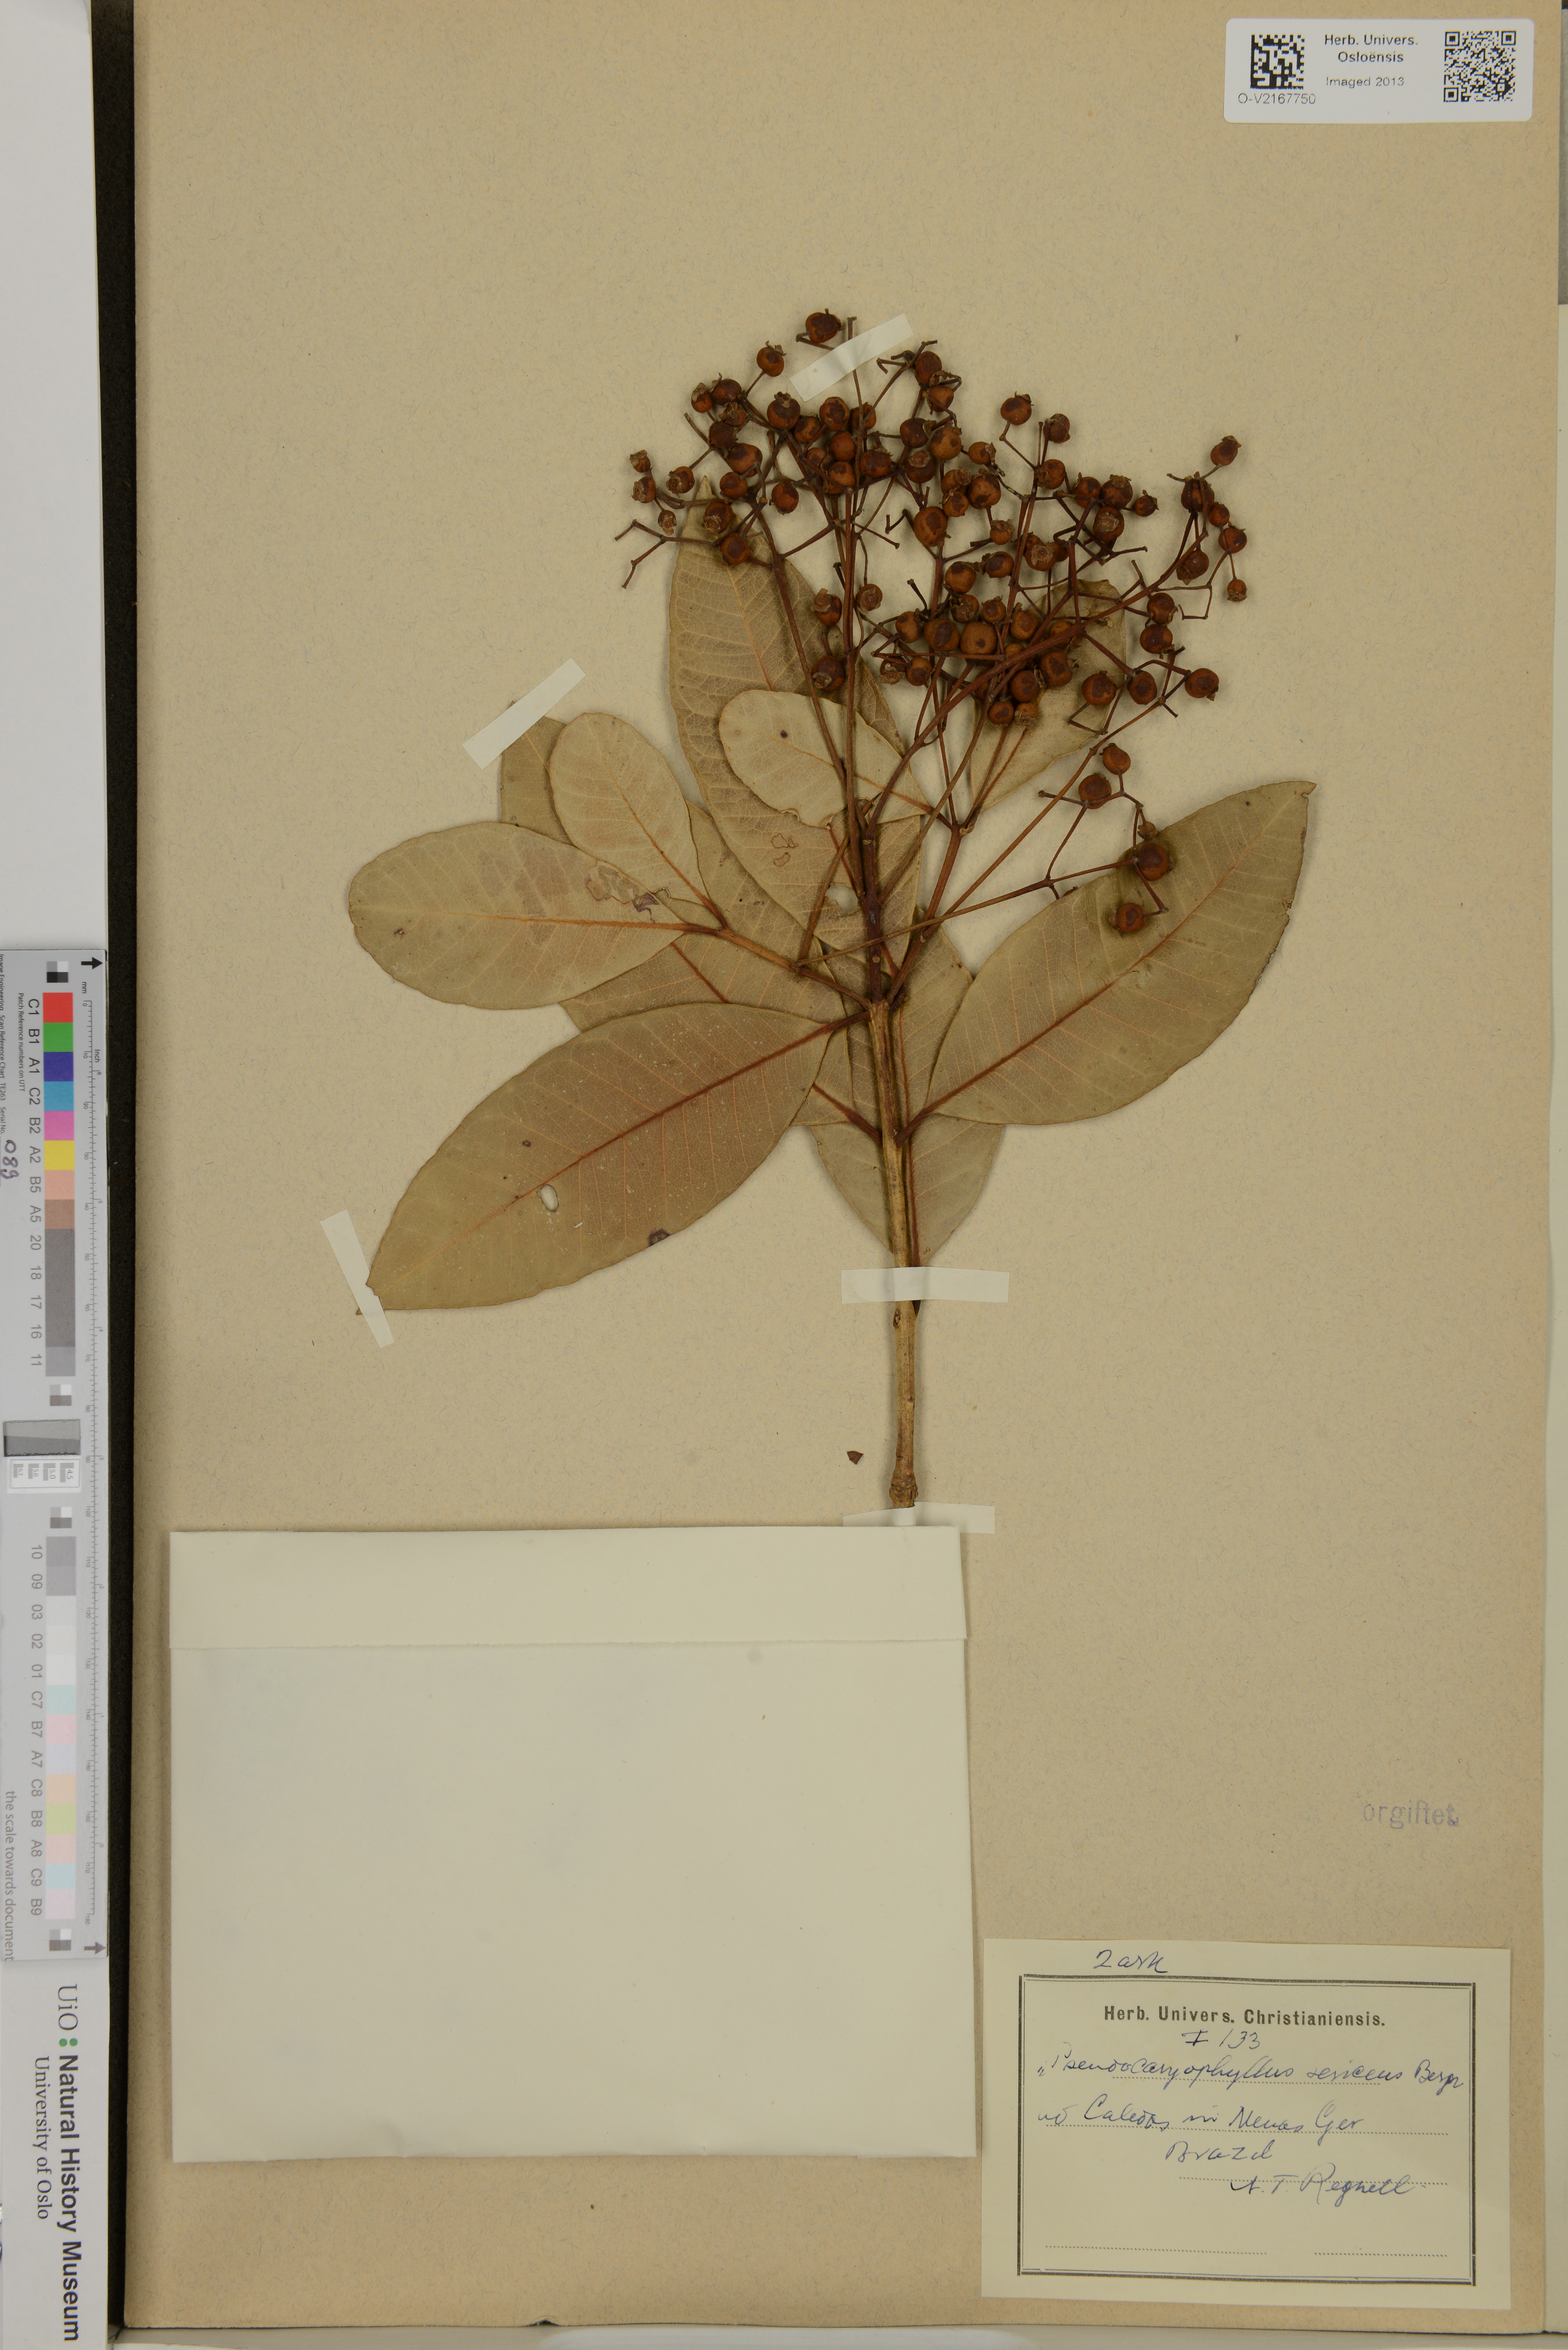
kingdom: Plantae
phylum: Tracheophyta
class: Magnoliopsida
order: Myrtales
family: Myrtaceae
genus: Pimenta
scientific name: Pimenta
